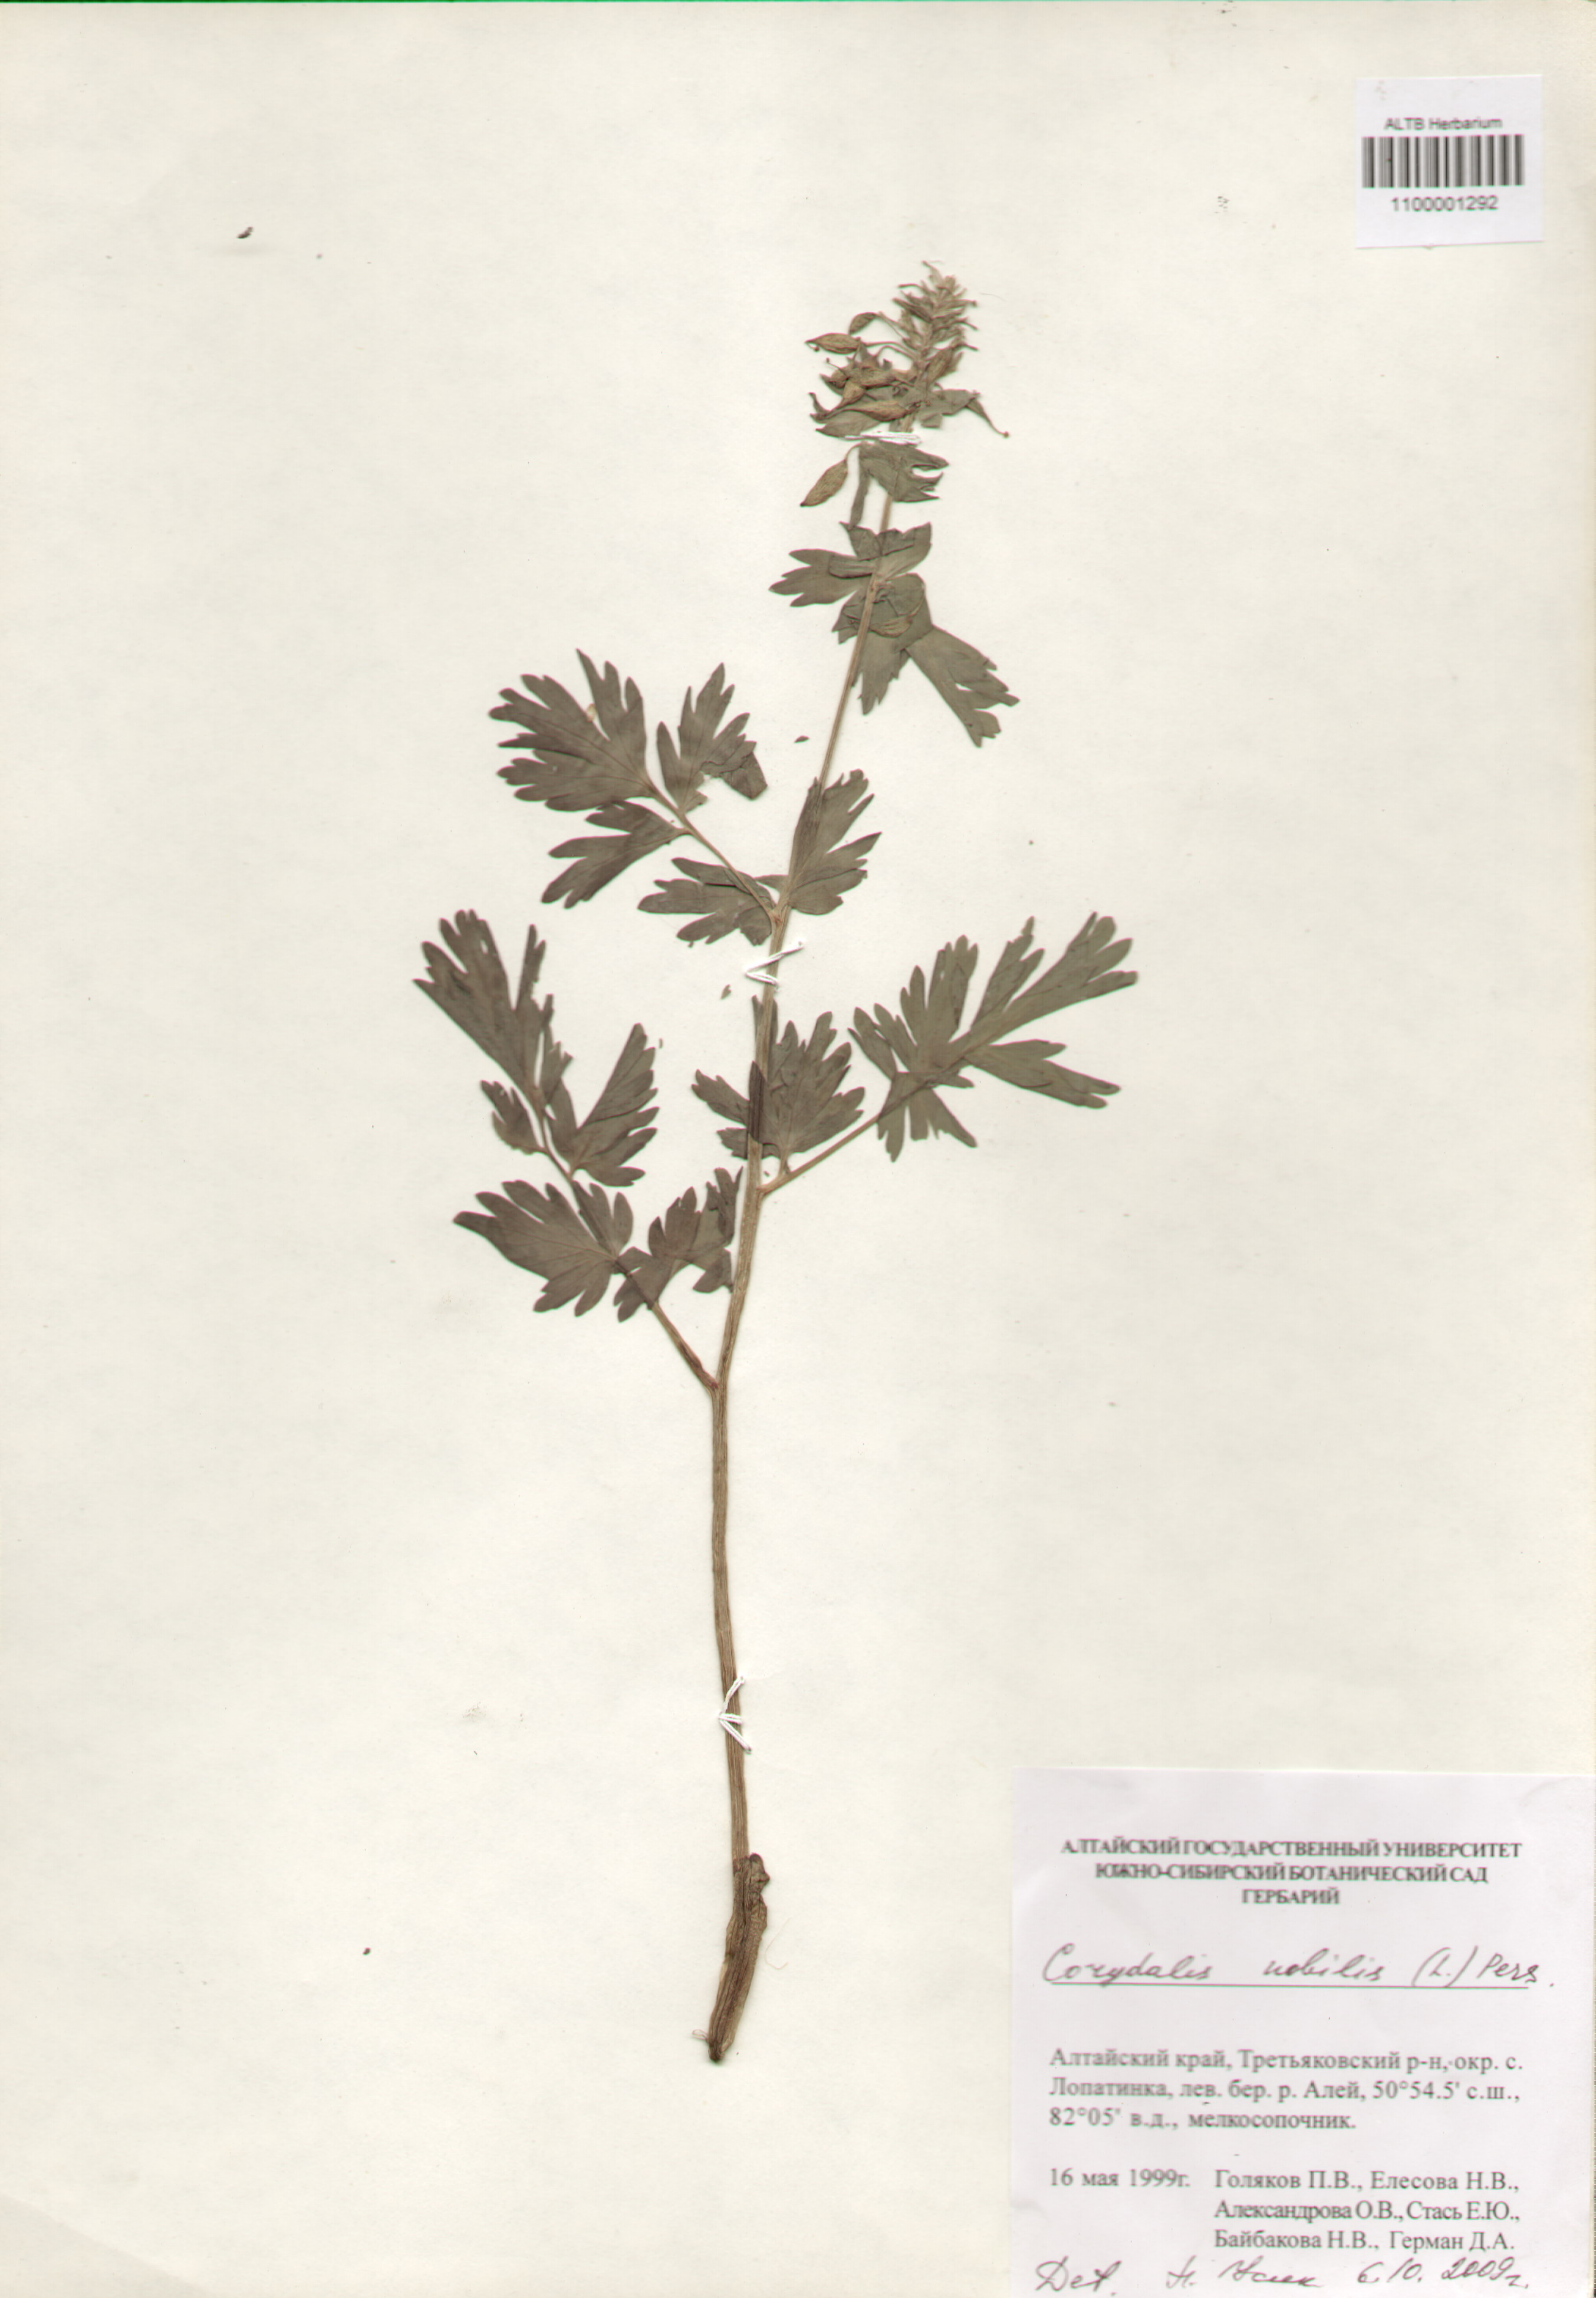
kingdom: Plantae
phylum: Tracheophyta
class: Magnoliopsida
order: Ranunculales
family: Papaveraceae
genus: Corydalis
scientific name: Corydalis nobilis
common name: Siberian corydalis
